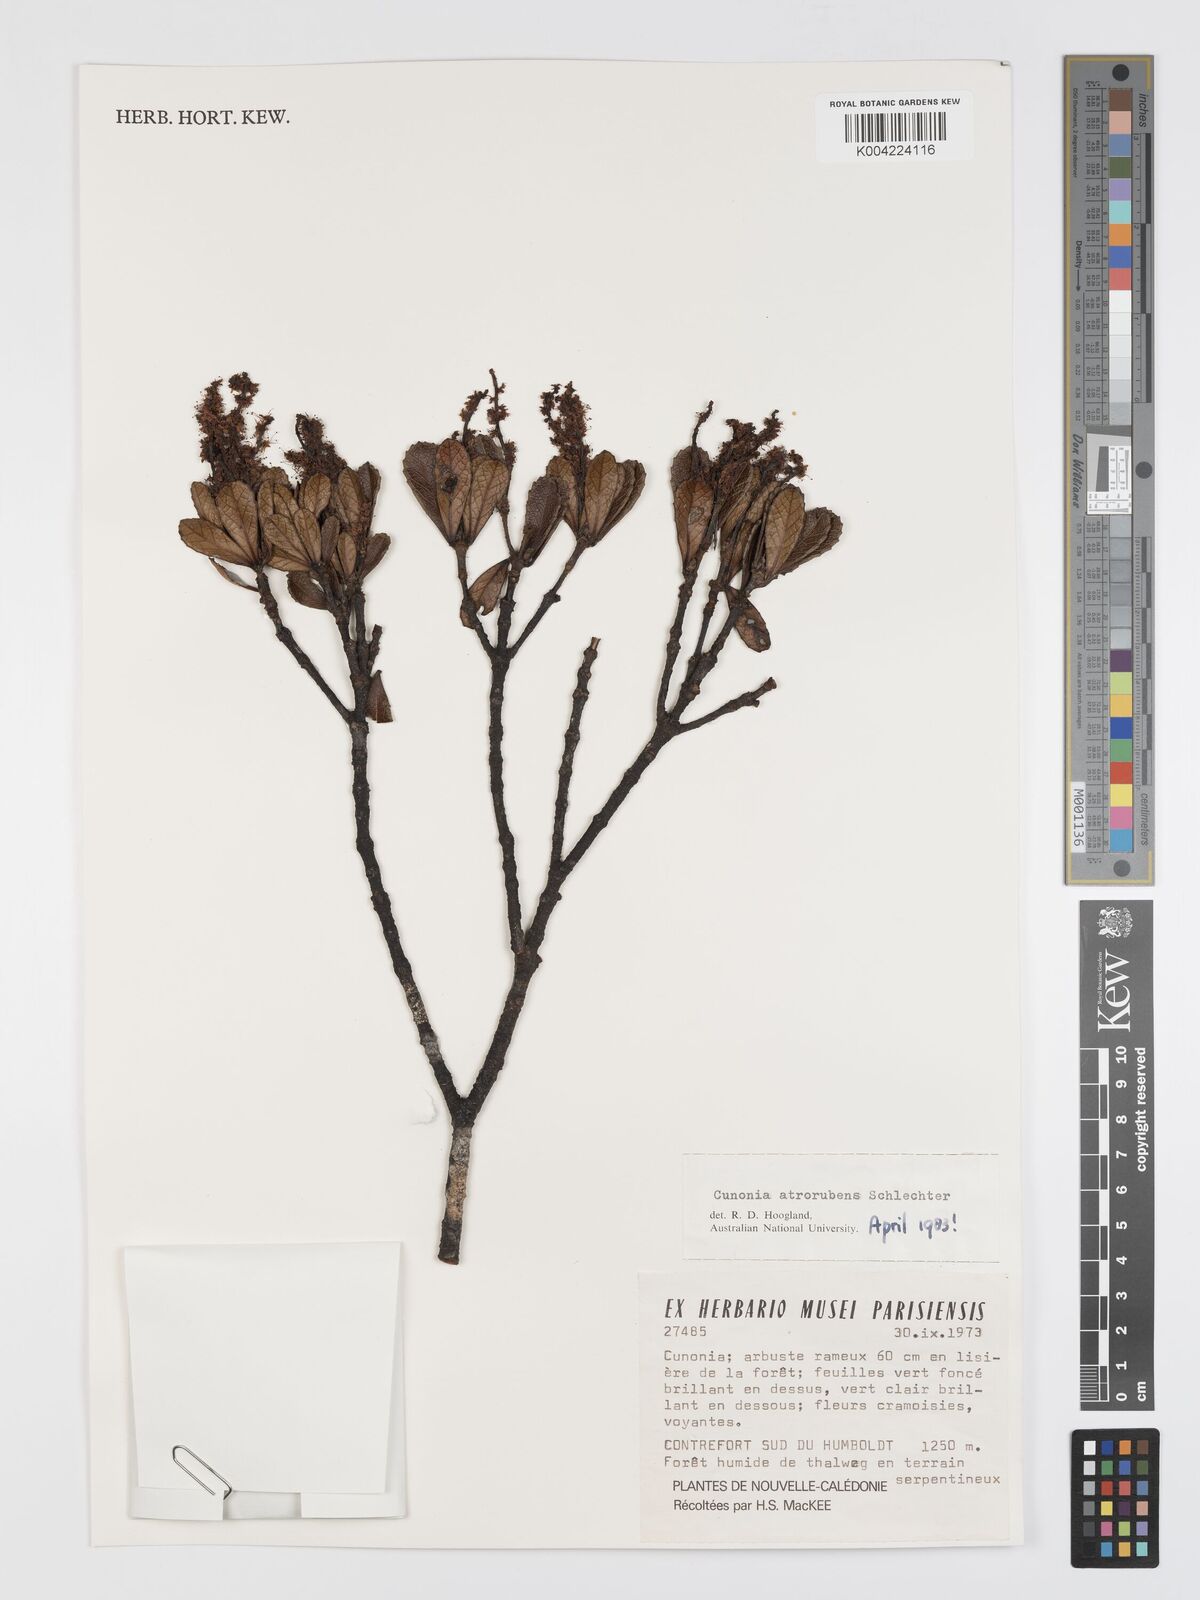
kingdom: Plantae
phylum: Tracheophyta
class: Magnoliopsida
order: Oxalidales
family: Cunoniaceae
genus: Cunonia
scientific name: Cunonia atrorubens
